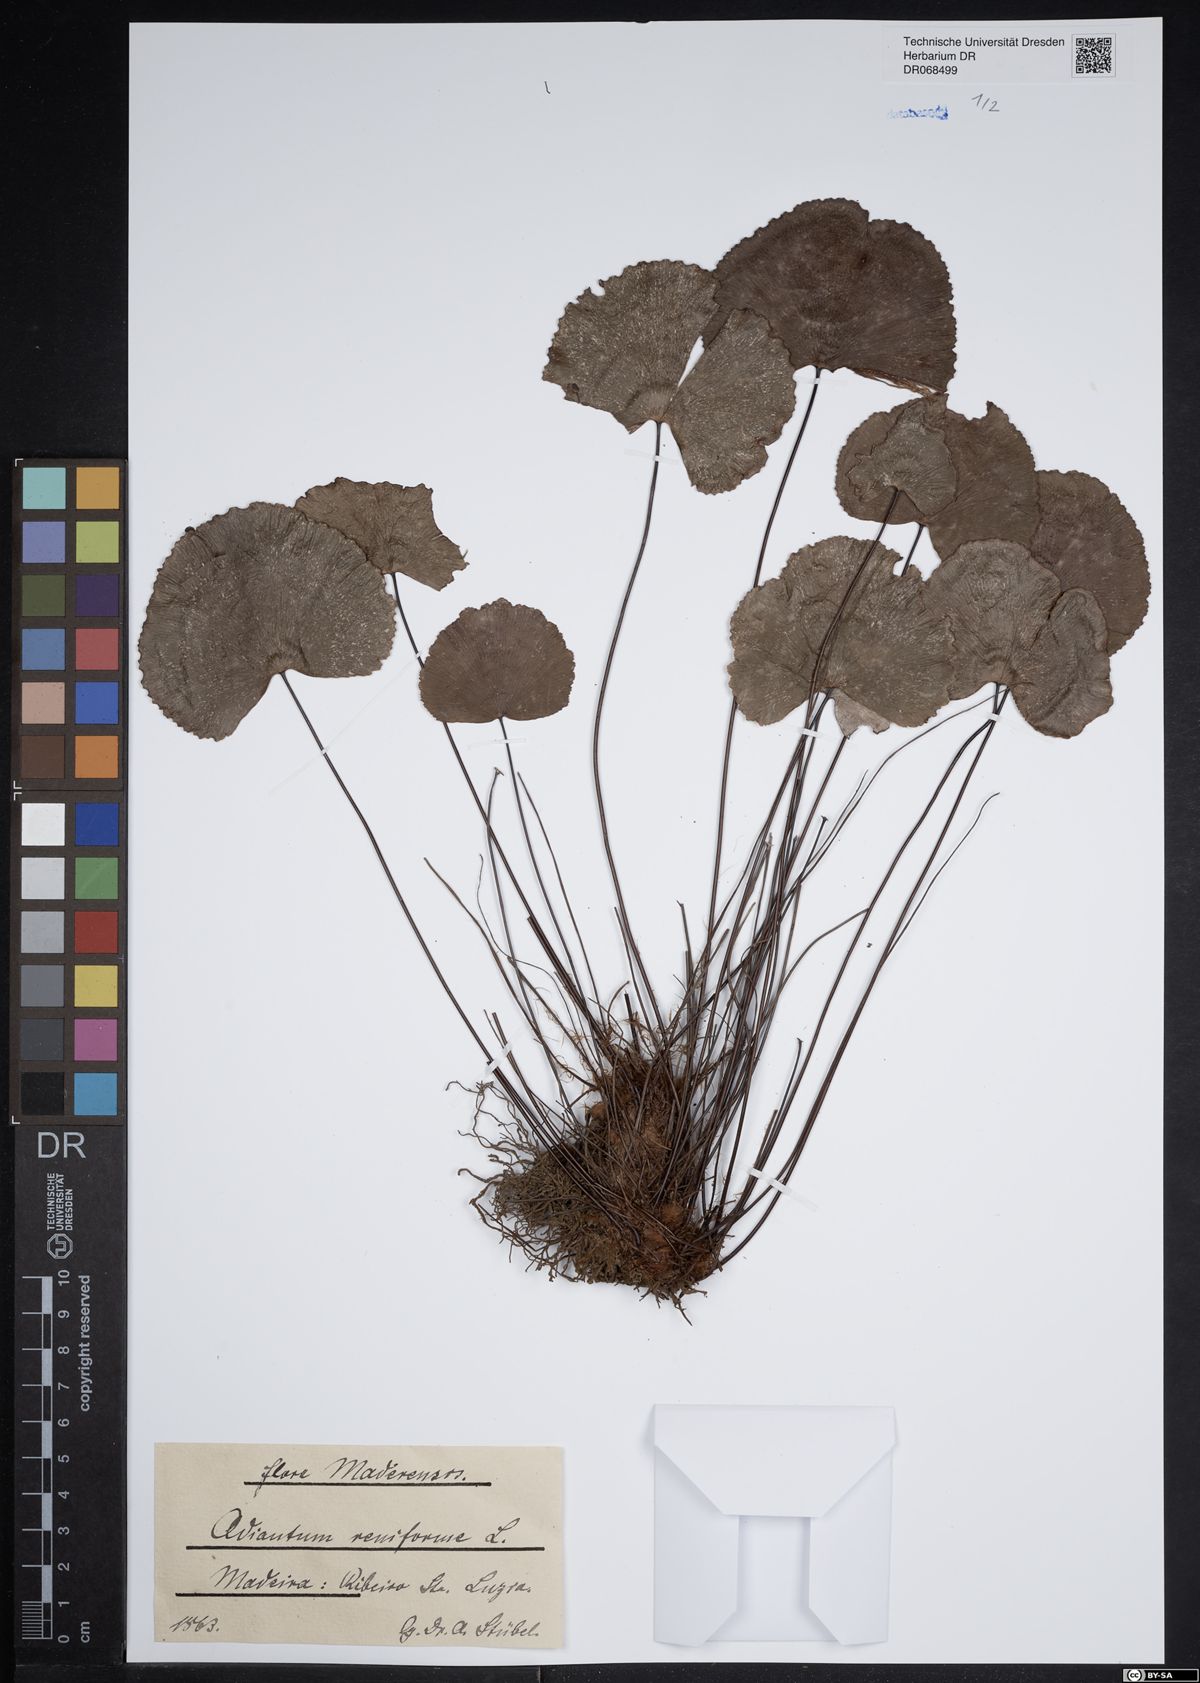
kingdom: Plantae
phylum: Tracheophyta
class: Polypodiopsida
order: Polypodiales
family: Pteridaceae
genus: Adiantum
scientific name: Adiantum reniforme
